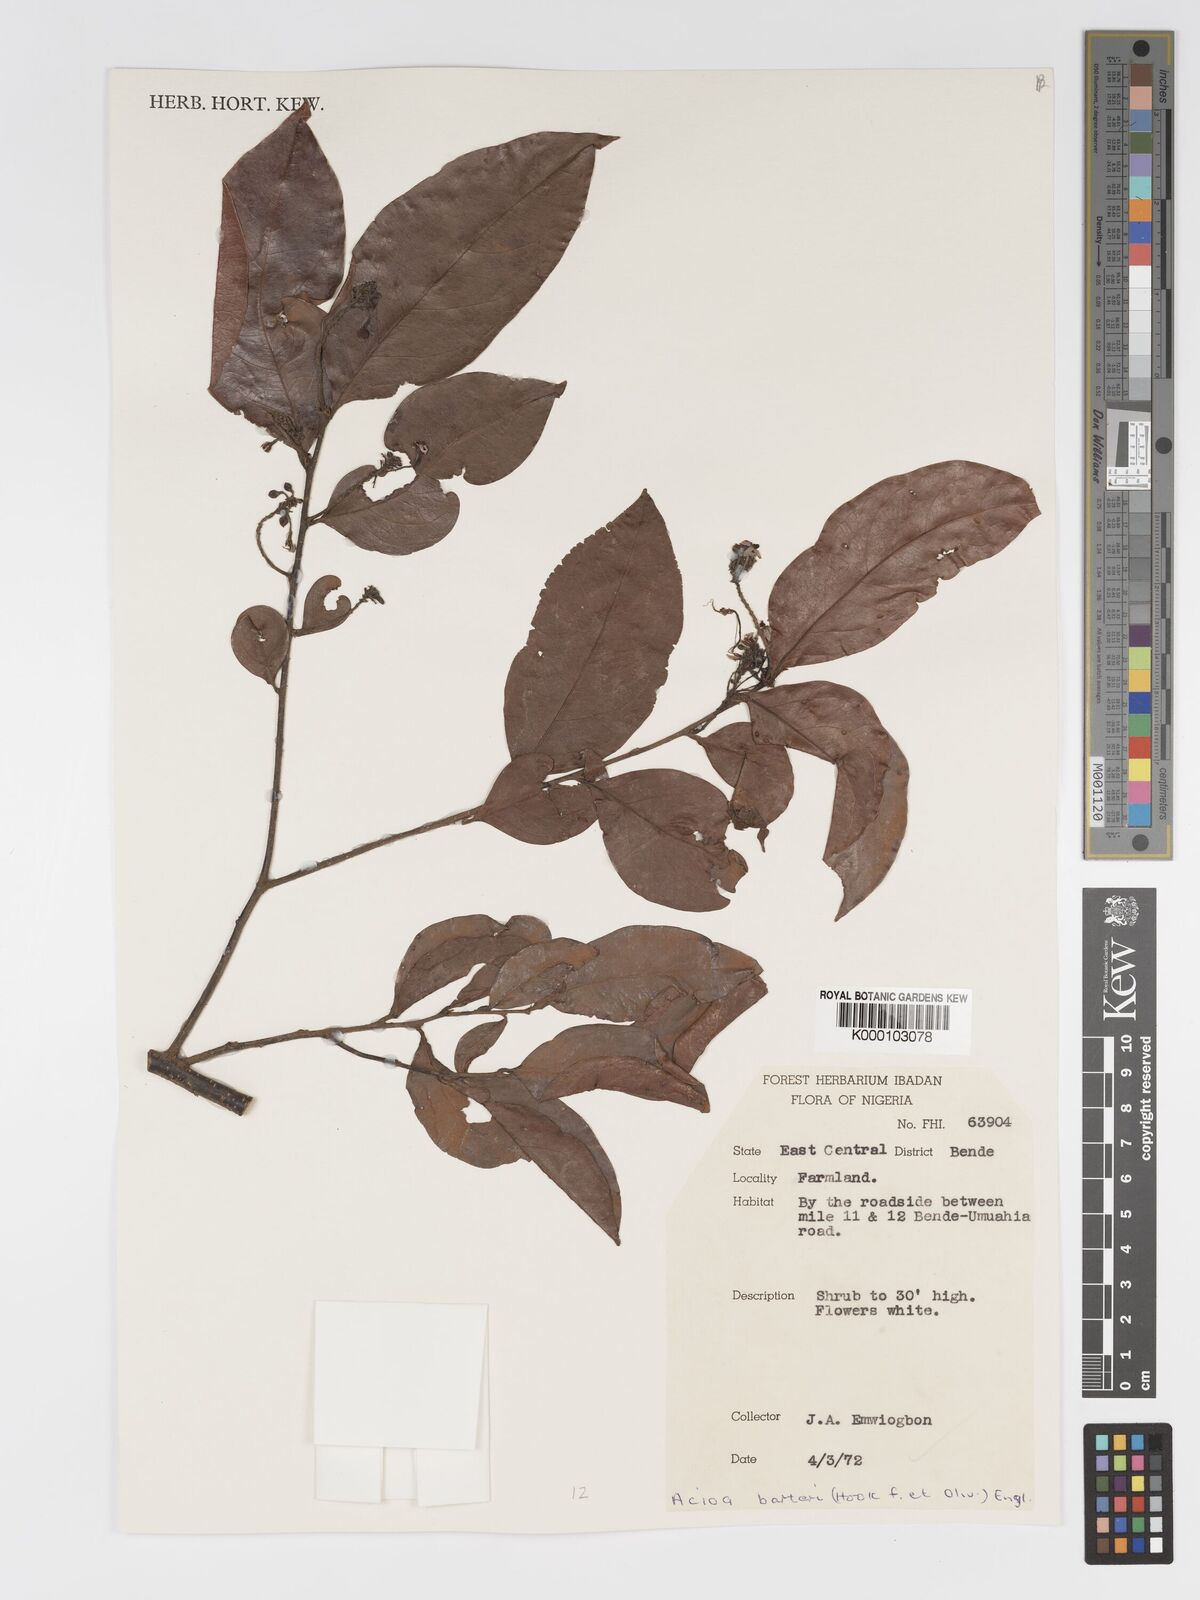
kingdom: Plantae
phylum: Tracheophyta
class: Magnoliopsida
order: Malpighiales
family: Chrysobalanaceae
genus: Dactyladenia
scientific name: Dactyladenia barteri
